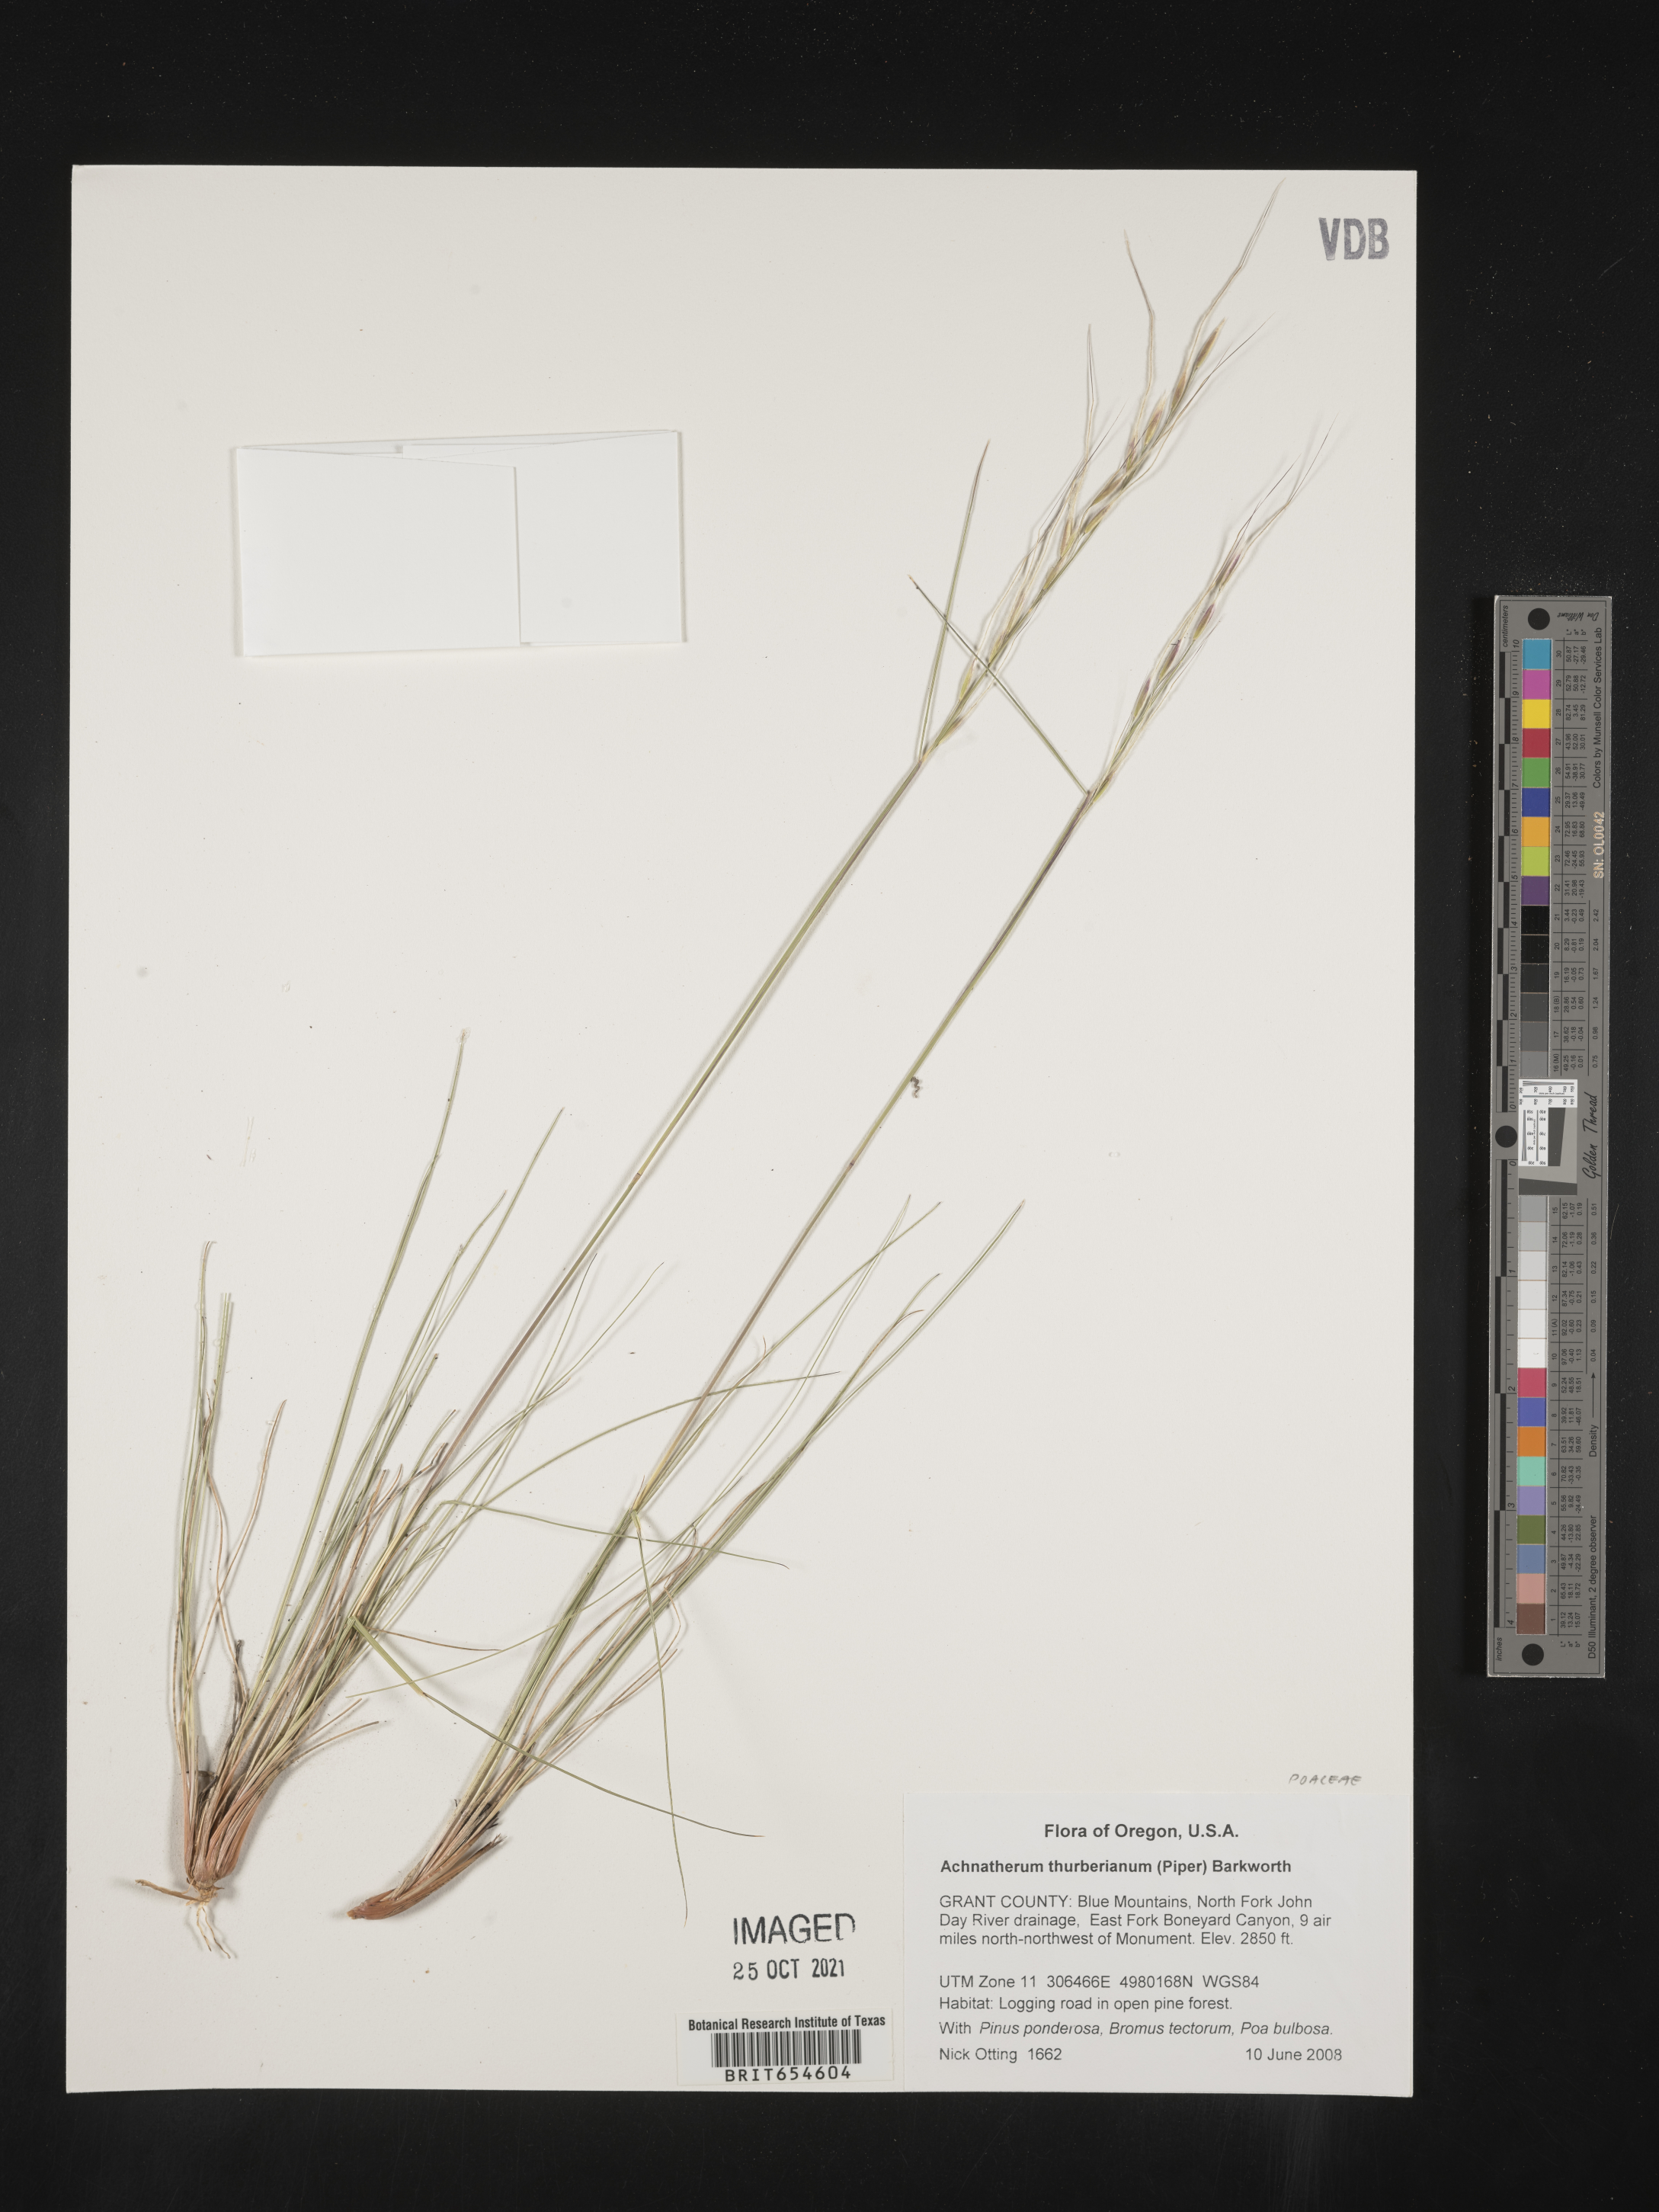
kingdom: Plantae
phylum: Tracheophyta
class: Liliopsida
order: Poales
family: Poaceae
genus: Achnatherum
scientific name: Achnatherum
